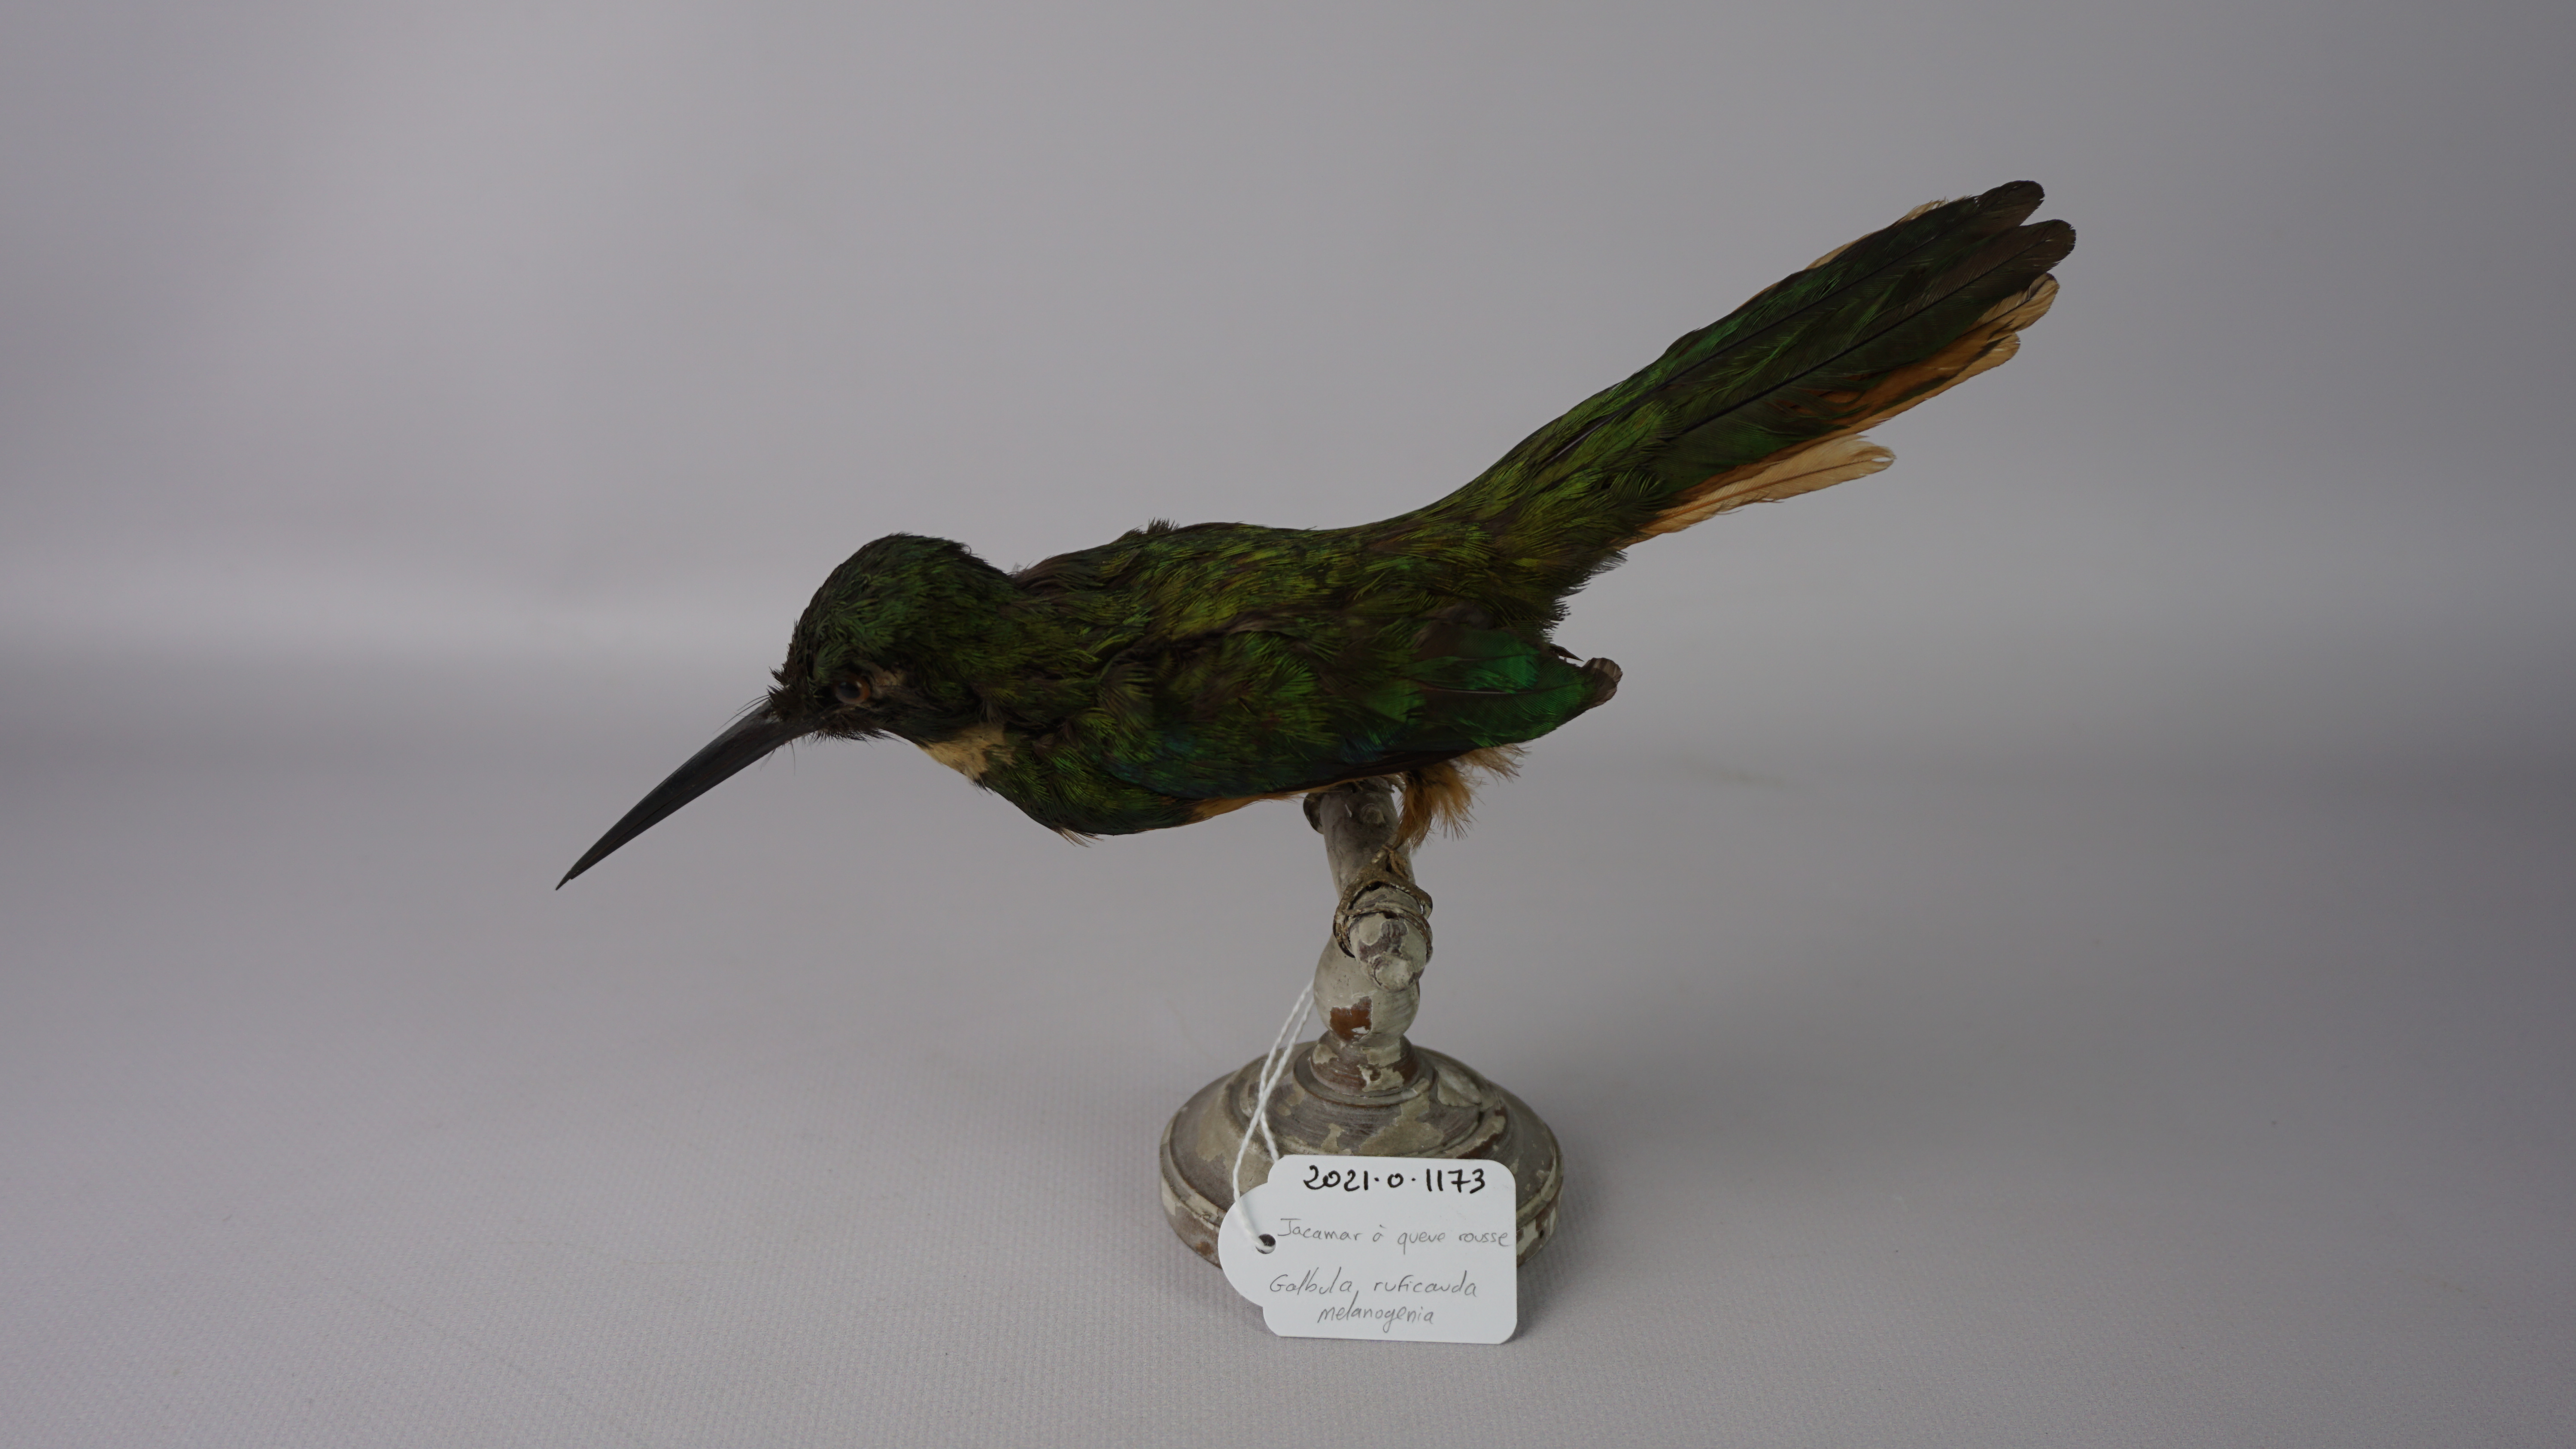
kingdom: Animalia
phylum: Chordata
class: Aves
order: Piciformes
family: Galbulidae
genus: Galbula
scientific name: Galbula ruficauda
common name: Rufous-tailed jacamar
